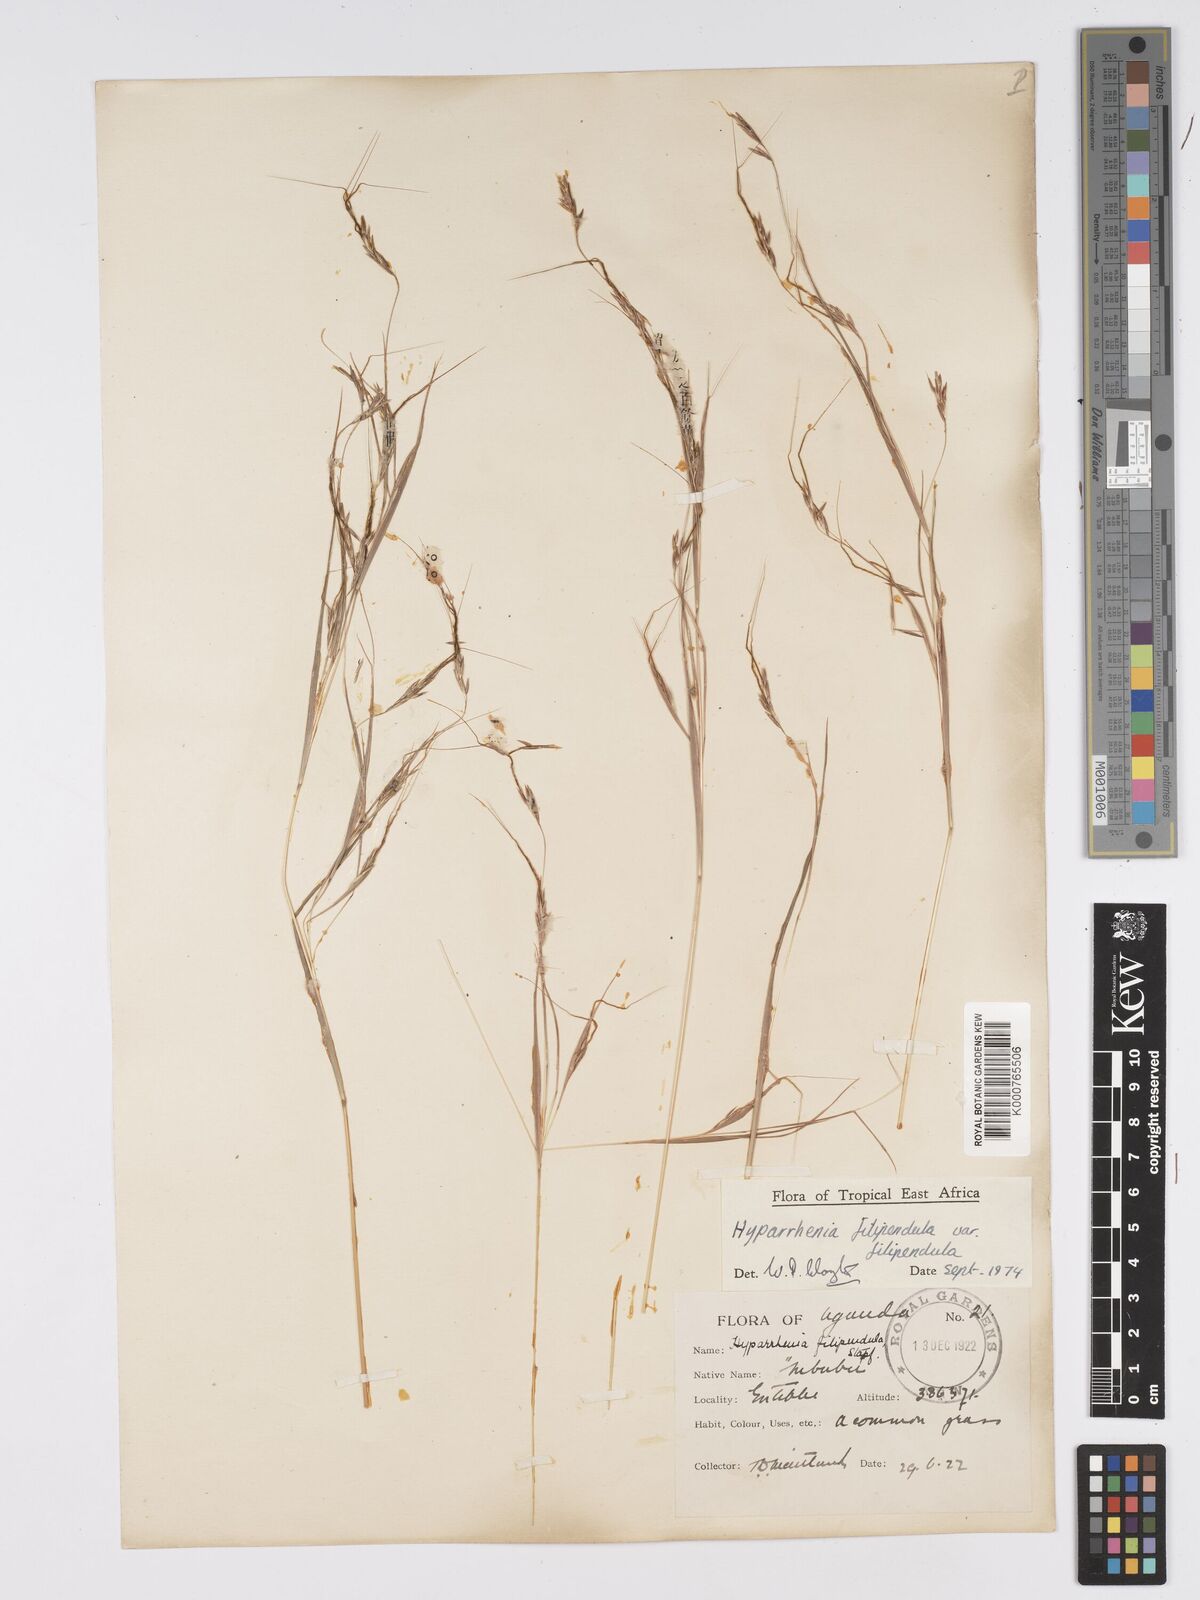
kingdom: Plantae
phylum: Tracheophyta
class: Liliopsida
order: Poales
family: Poaceae
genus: Hyparrhenia
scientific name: Hyparrhenia filipendula
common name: Tambookie grass
